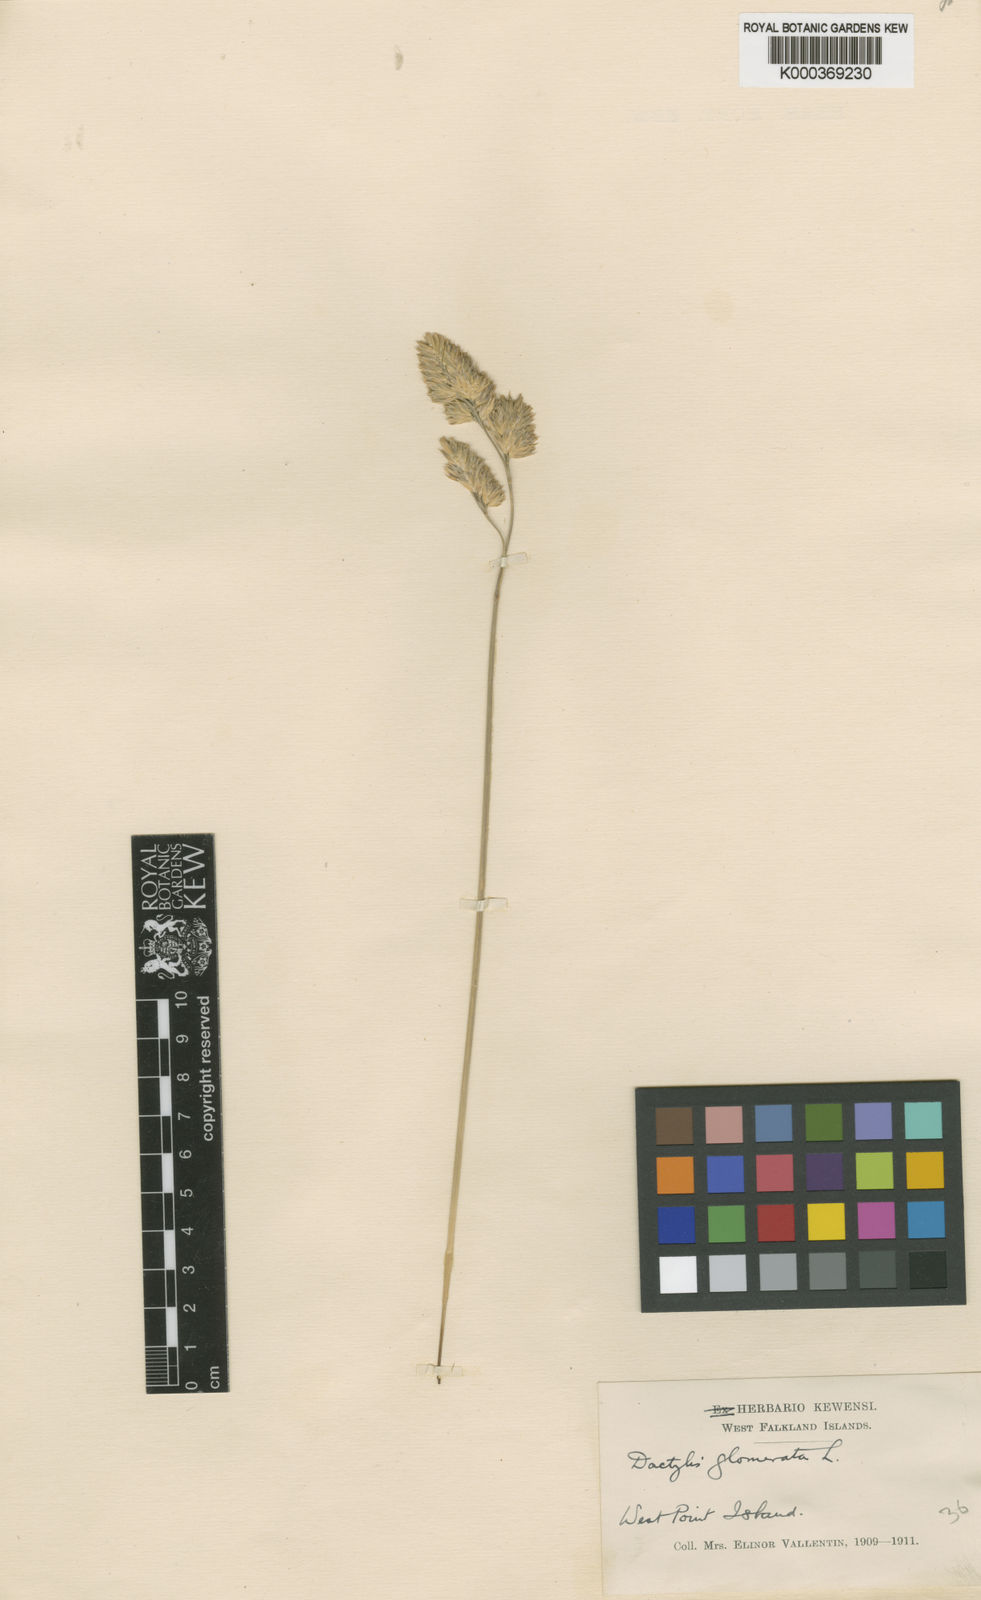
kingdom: Plantae
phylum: Tracheophyta
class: Liliopsida
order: Poales
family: Poaceae
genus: Dactylis
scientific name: Dactylis glomerata
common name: Orchardgrass
